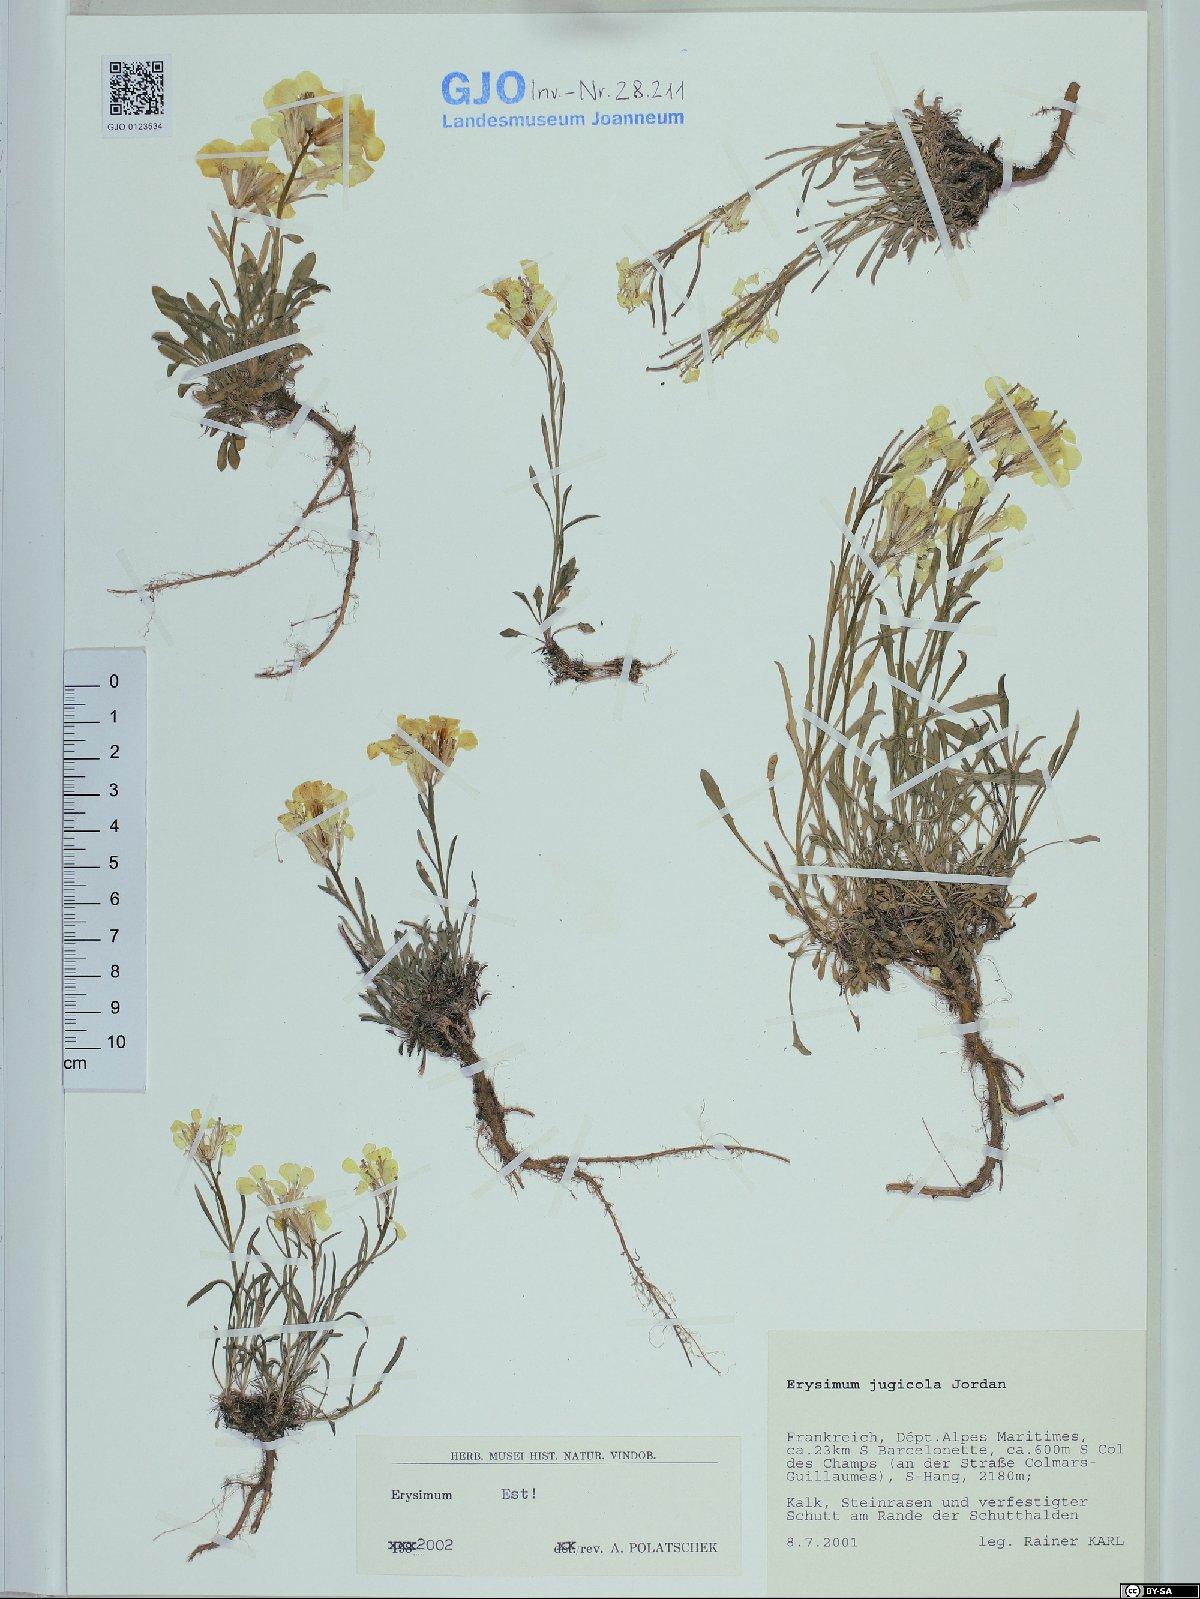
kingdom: Plantae
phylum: Tracheophyta
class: Magnoliopsida
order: Brassicales
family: Brassicaceae
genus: Erysimum
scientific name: Erysimum jugicolum
